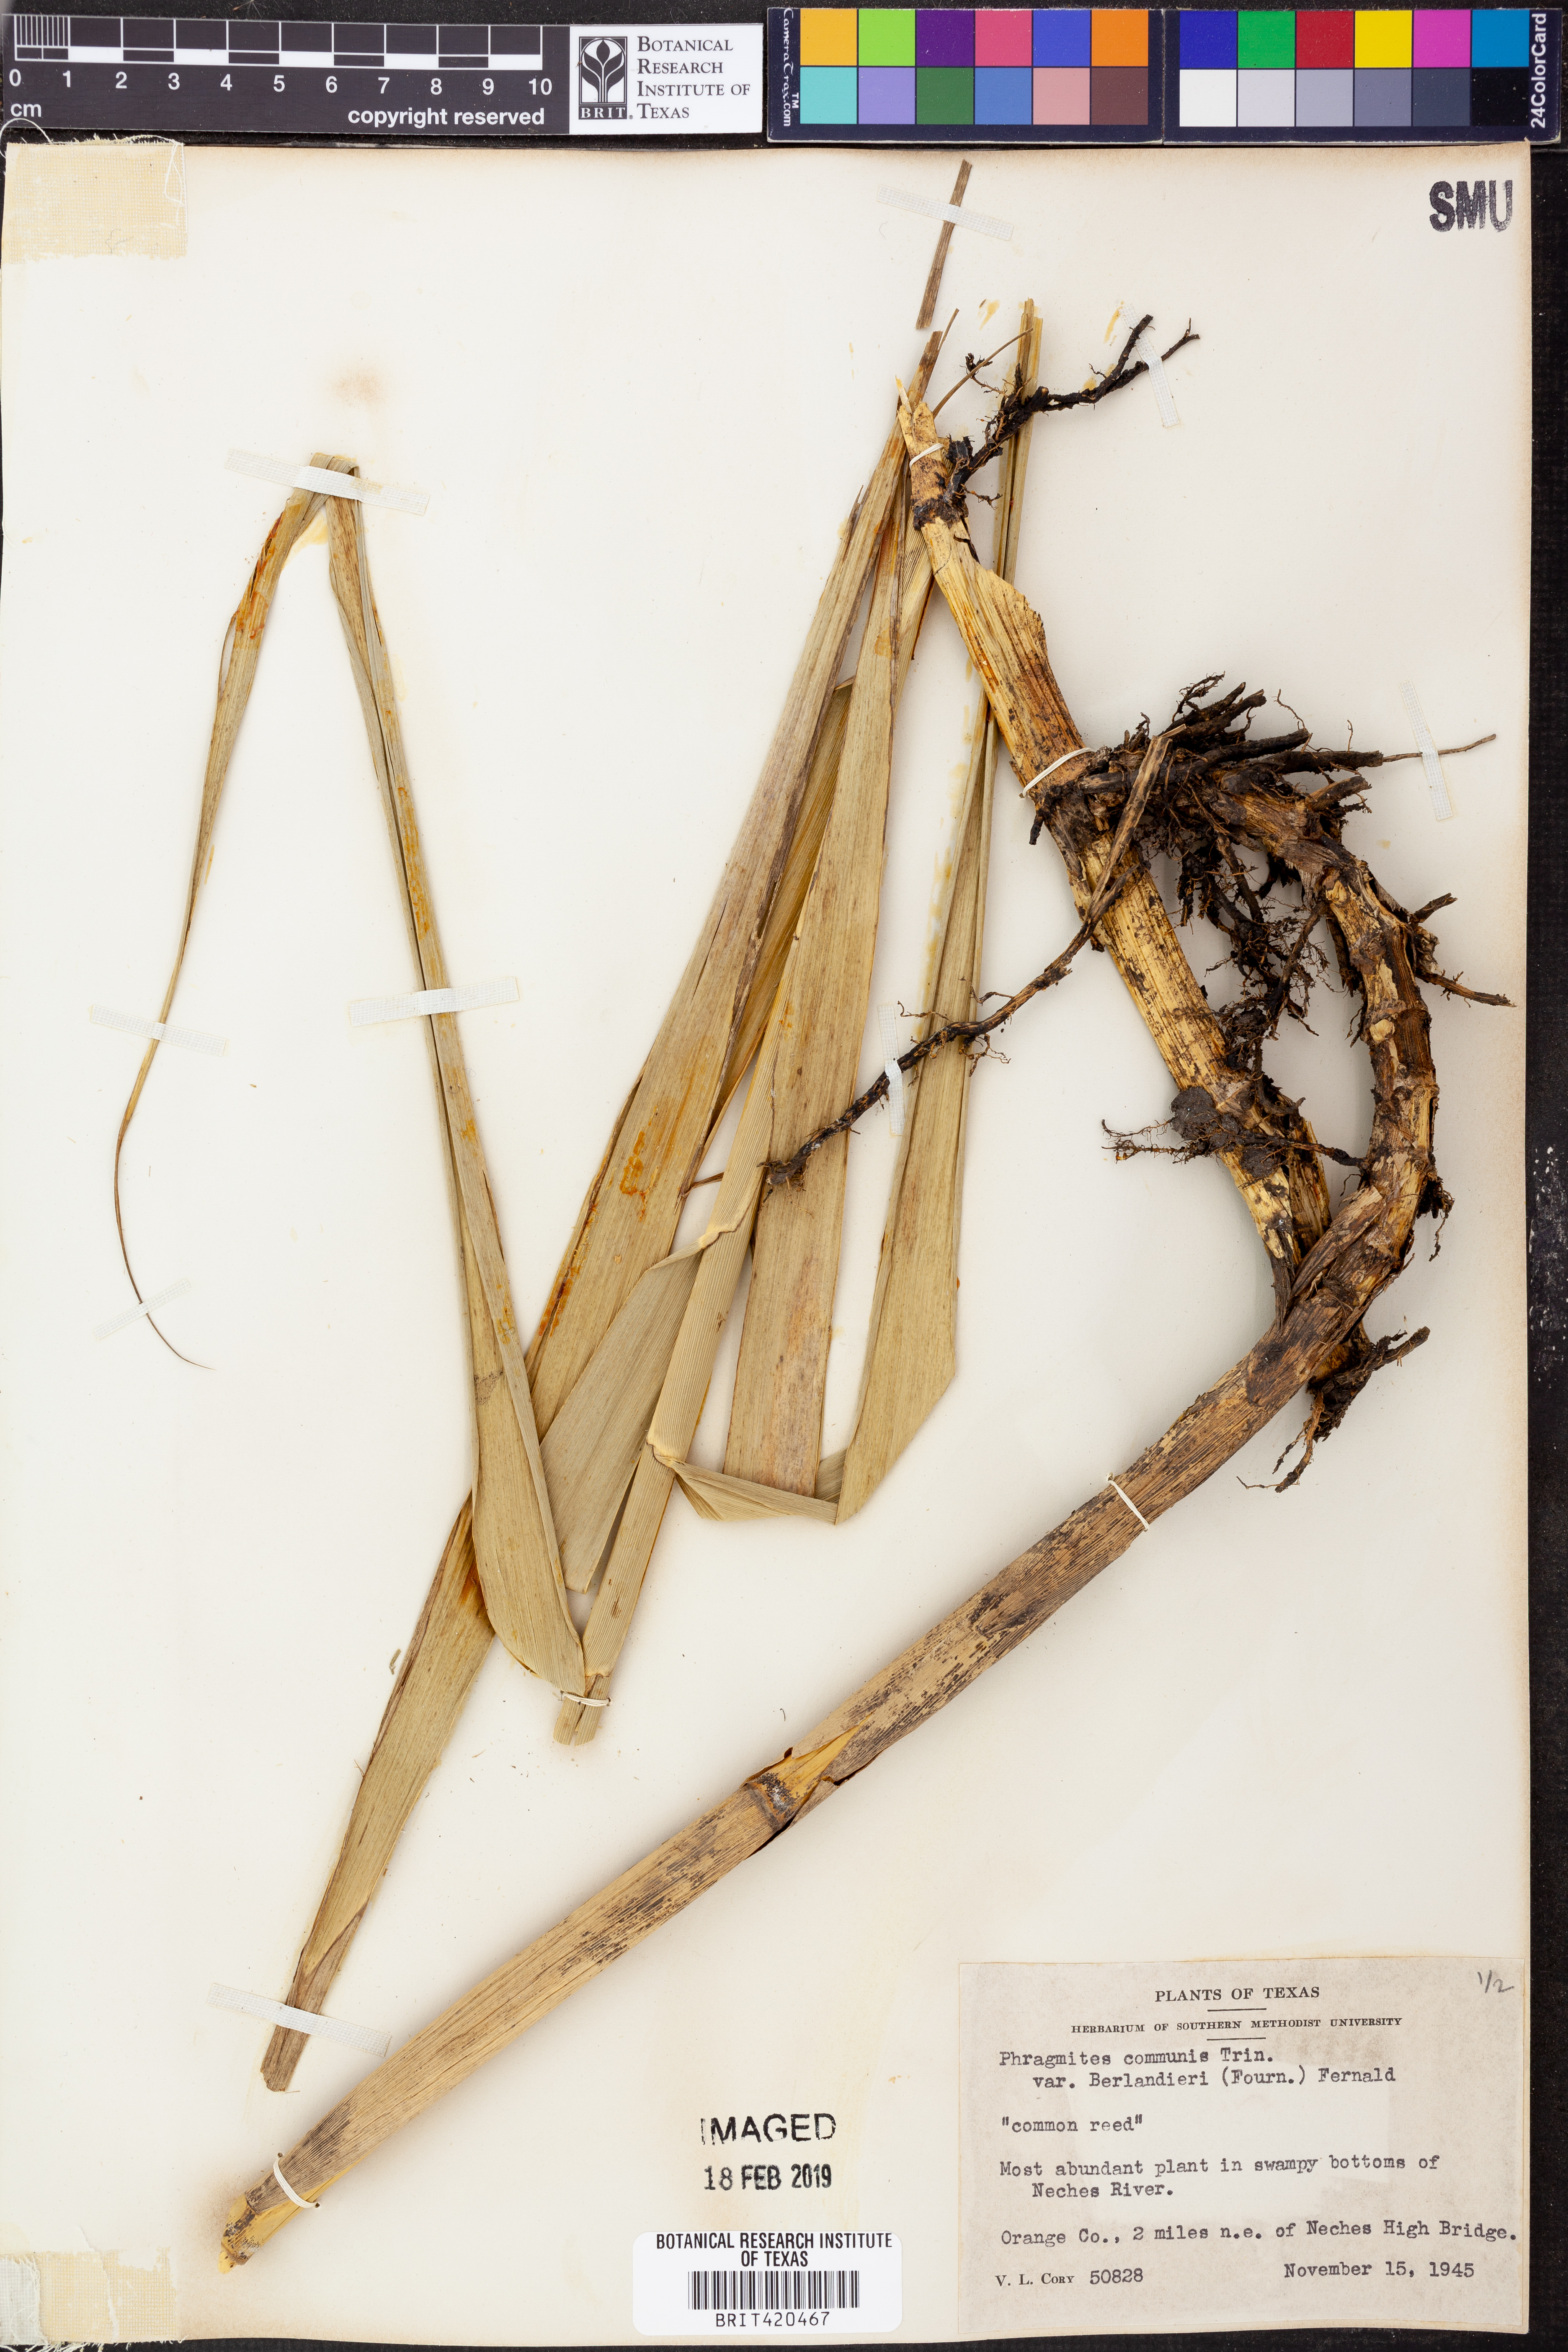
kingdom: Plantae
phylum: Tracheophyta
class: Liliopsida
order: Poales
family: Poaceae
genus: Phragmites
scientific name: Phragmites australis
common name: Common reed
